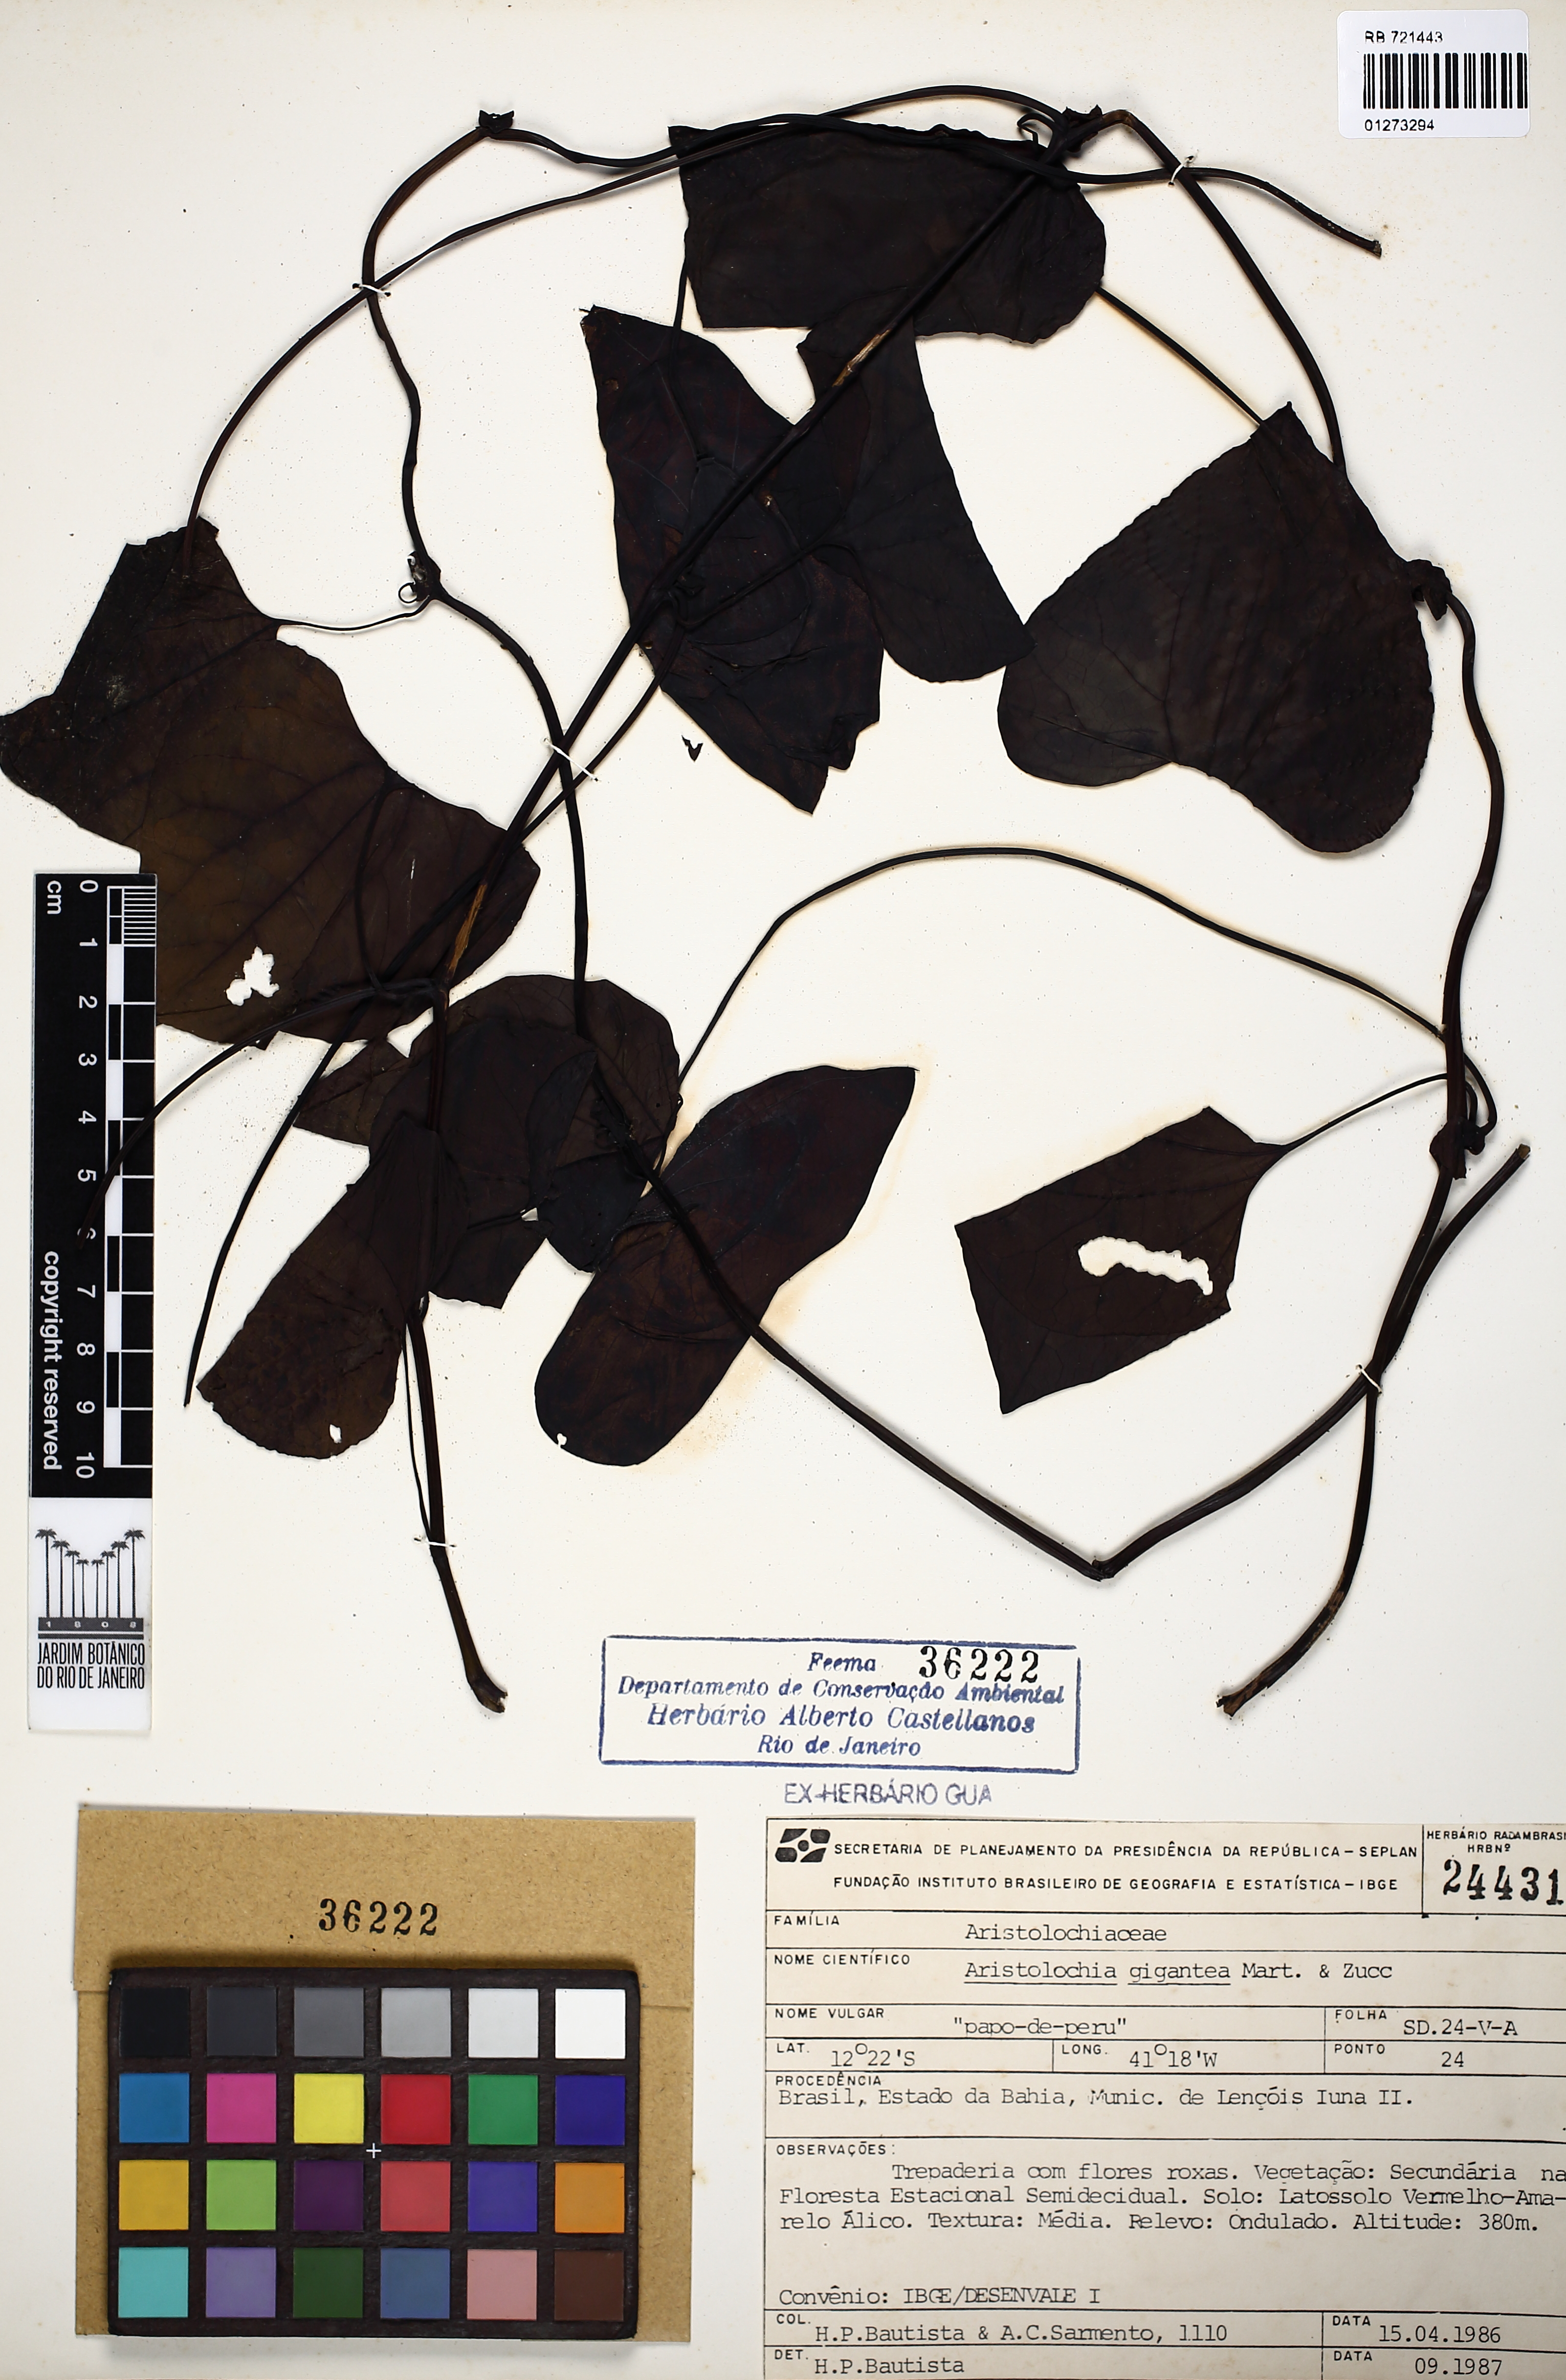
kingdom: Plantae
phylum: Tracheophyta
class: Magnoliopsida
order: Piperales
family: Aristolochiaceae
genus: Aristolochia
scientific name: Aristolochia gigantea
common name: Duckflower
